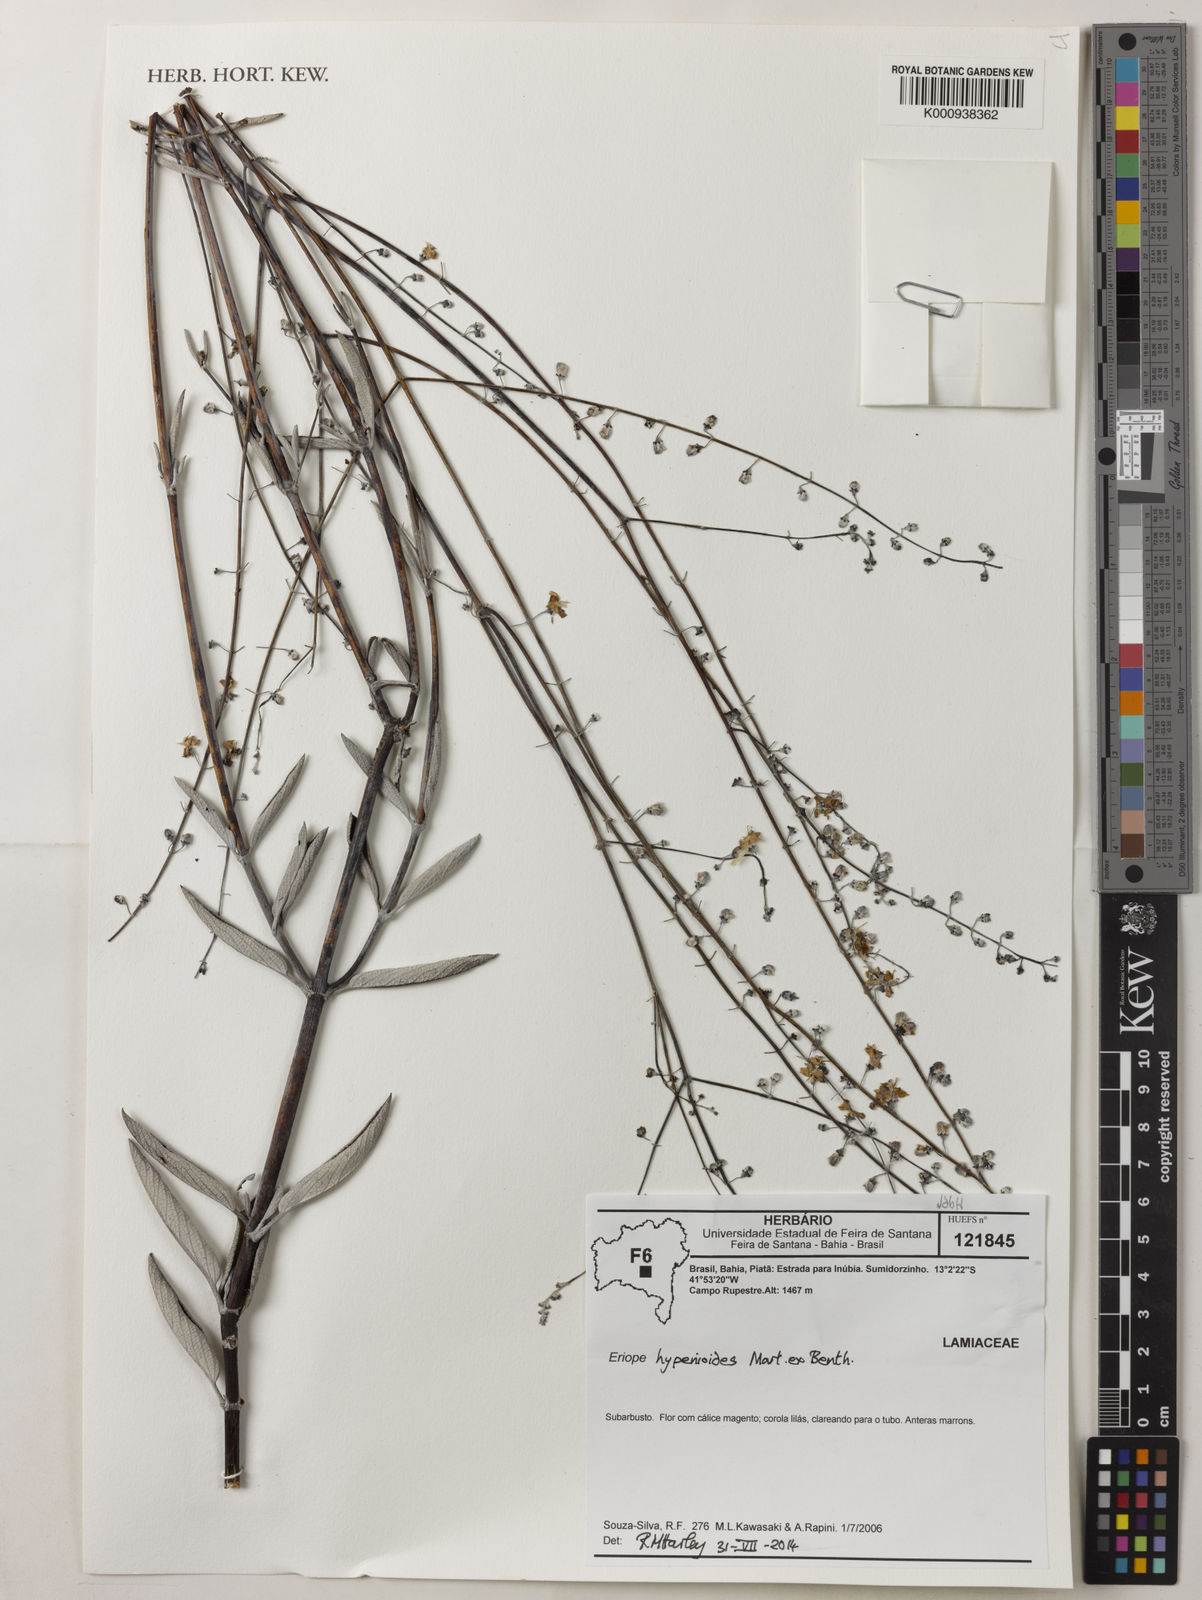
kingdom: Plantae
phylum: Tracheophyta
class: Magnoliopsida
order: Lamiales
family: Lamiaceae
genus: Eriope
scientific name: Eriope hypenioides
